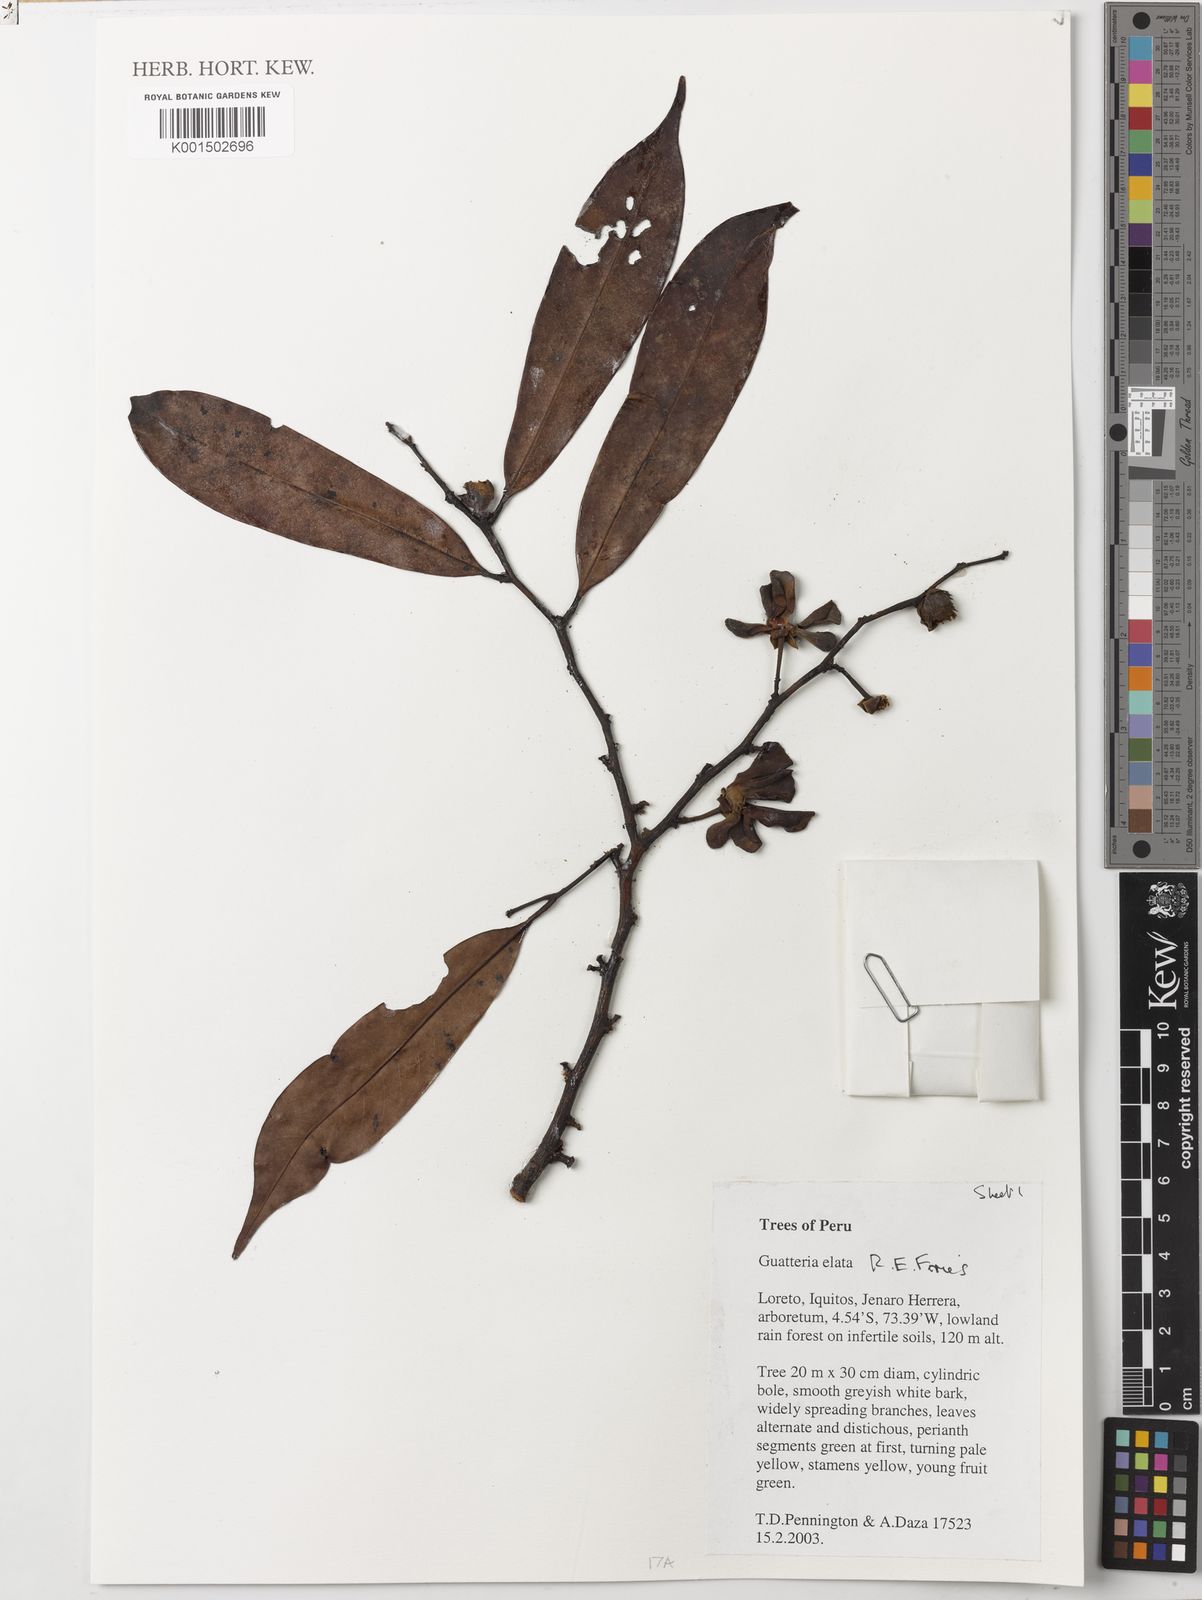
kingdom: Plantae
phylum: Tracheophyta
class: Magnoliopsida
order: Magnoliales
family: Annonaceae
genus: Guatteria
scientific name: Guatteria elata
